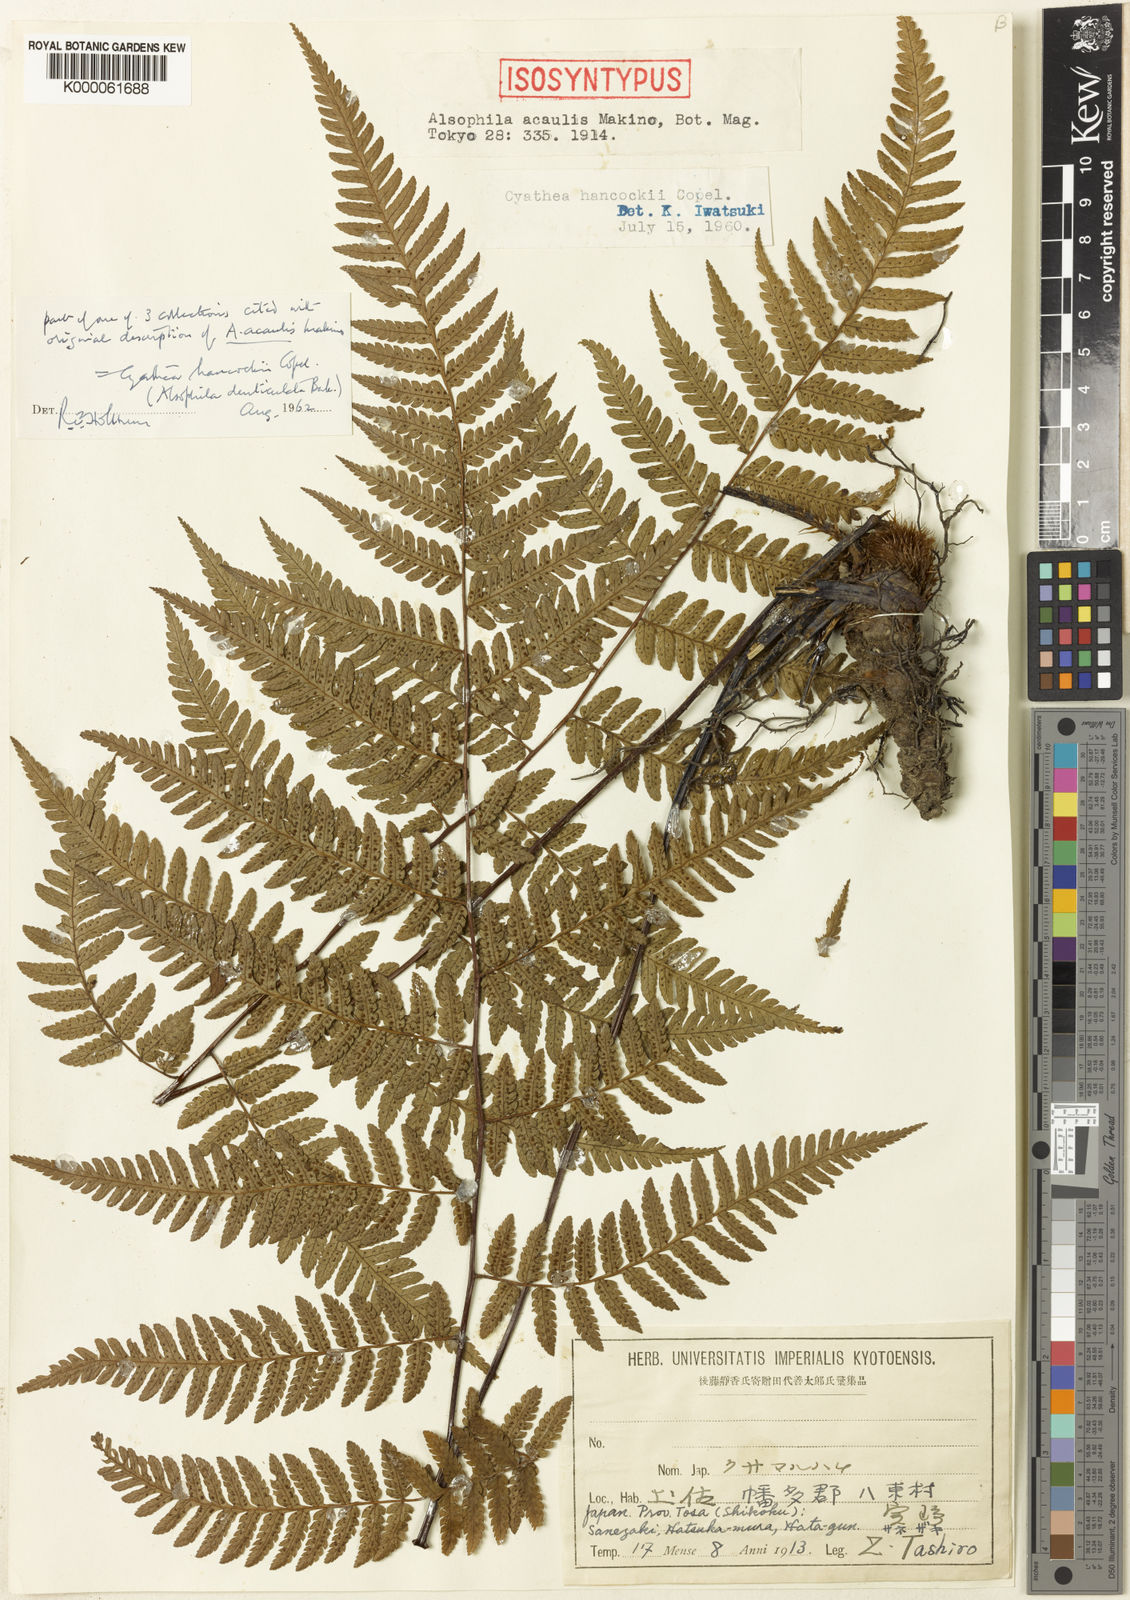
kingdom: Plantae
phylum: Tracheophyta
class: Polypodiopsida
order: Cyatheales
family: Cyatheaceae
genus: Gymnosphaera
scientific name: Gymnosphaera denticulata
